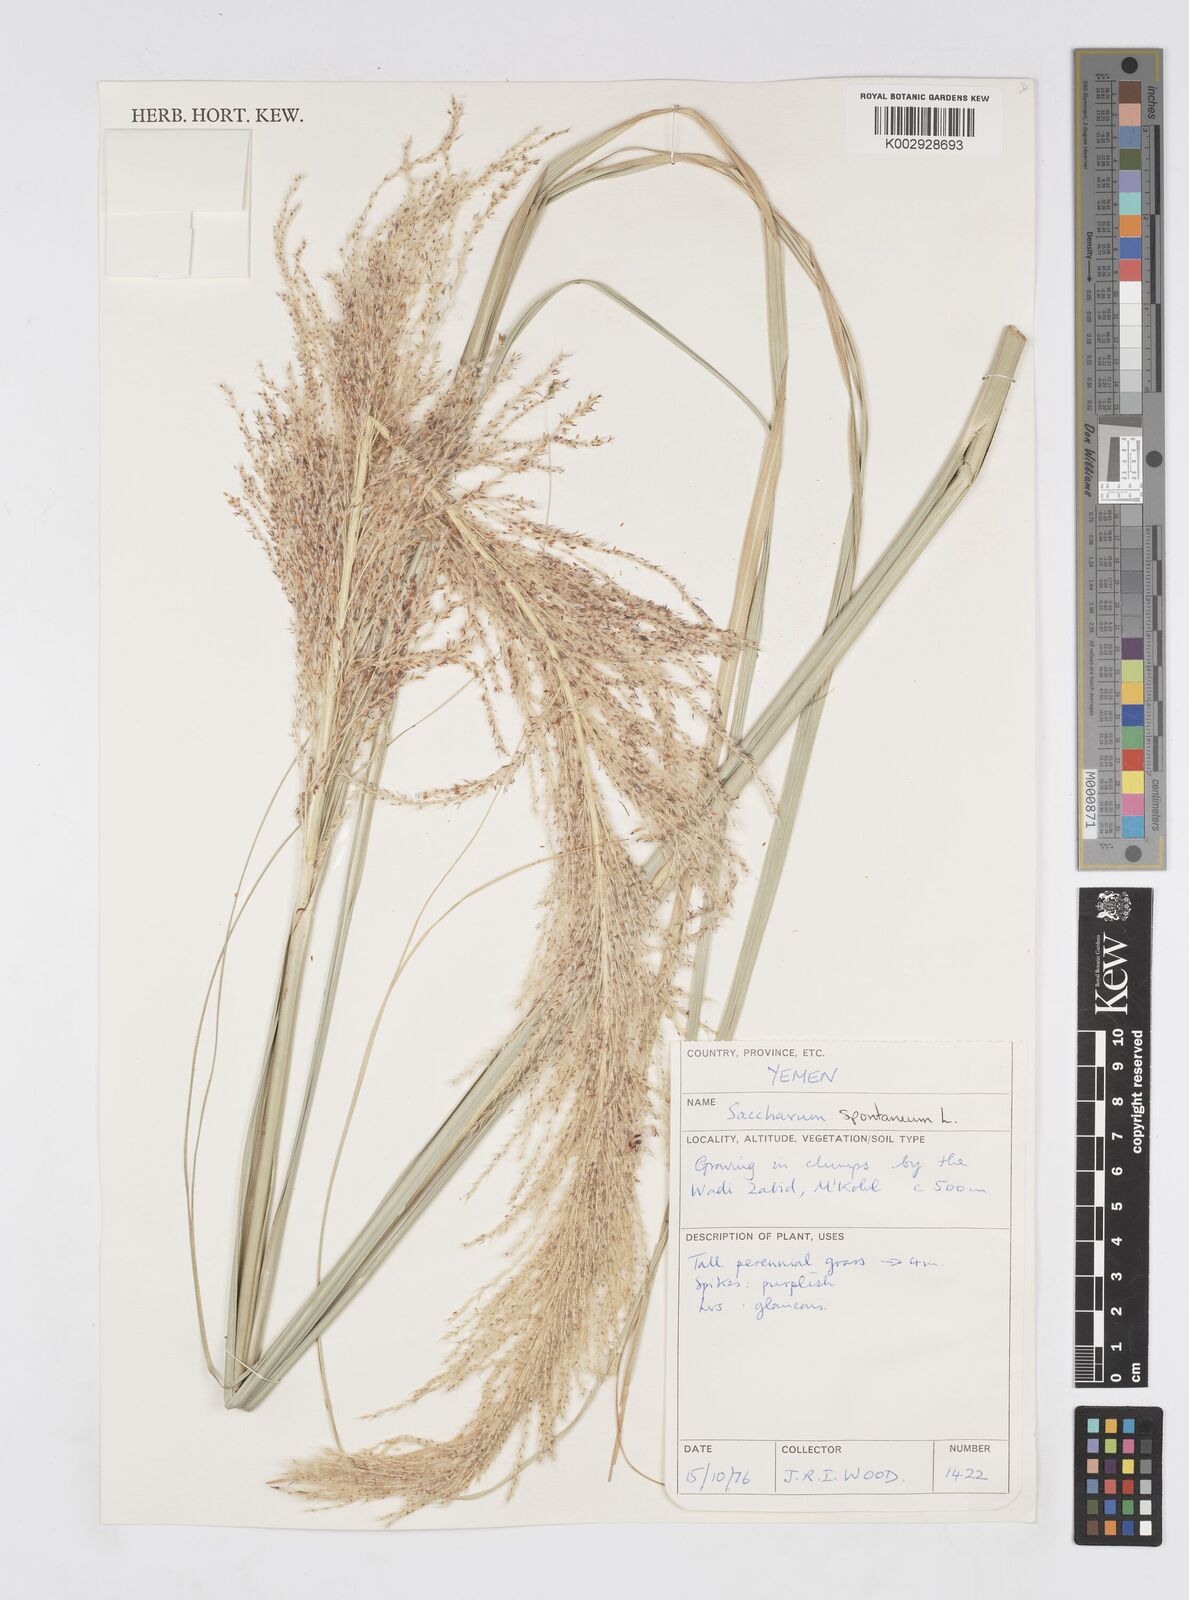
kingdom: Plantae
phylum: Tracheophyta
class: Liliopsida
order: Poales
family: Poaceae
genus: Saccharum
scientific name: Saccharum spontaneum
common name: Wild sugarcane
